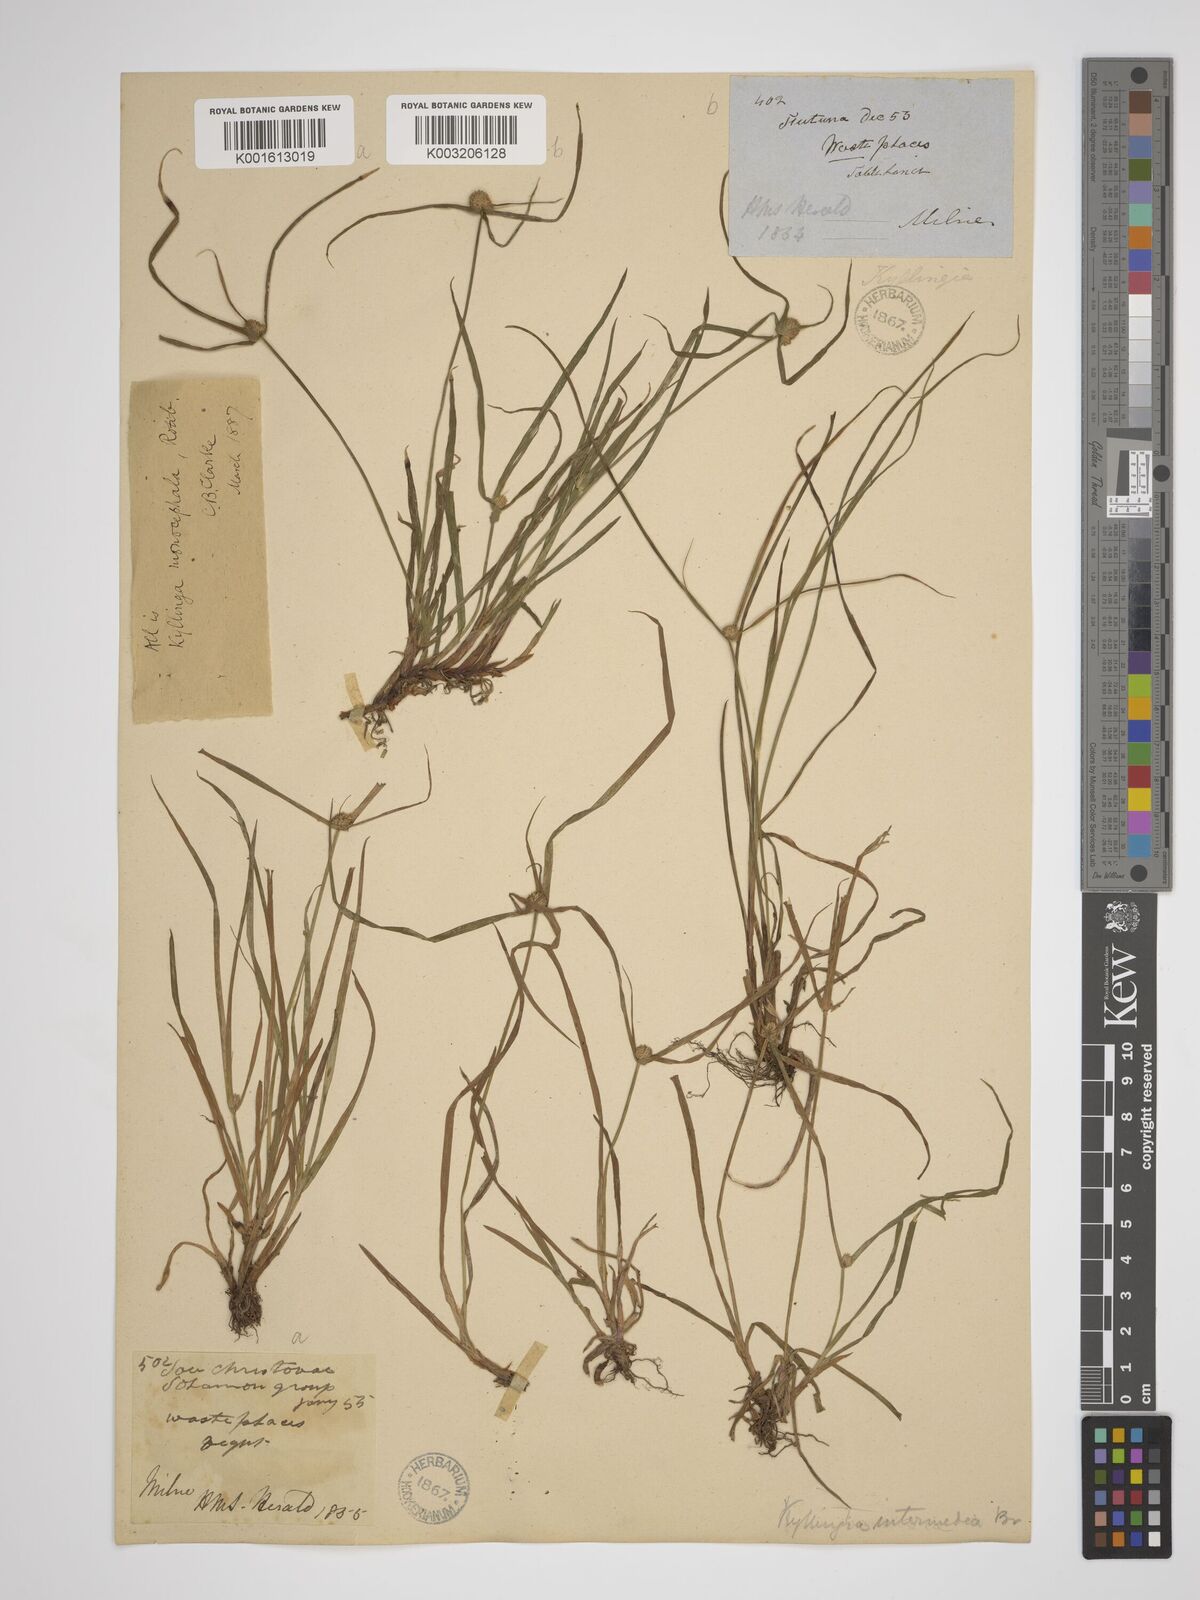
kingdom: Plantae
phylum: Tracheophyta
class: Liliopsida
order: Poales
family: Cyperaceae
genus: Rhynchospora
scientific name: Rhynchospora colorata
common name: Star sedge
